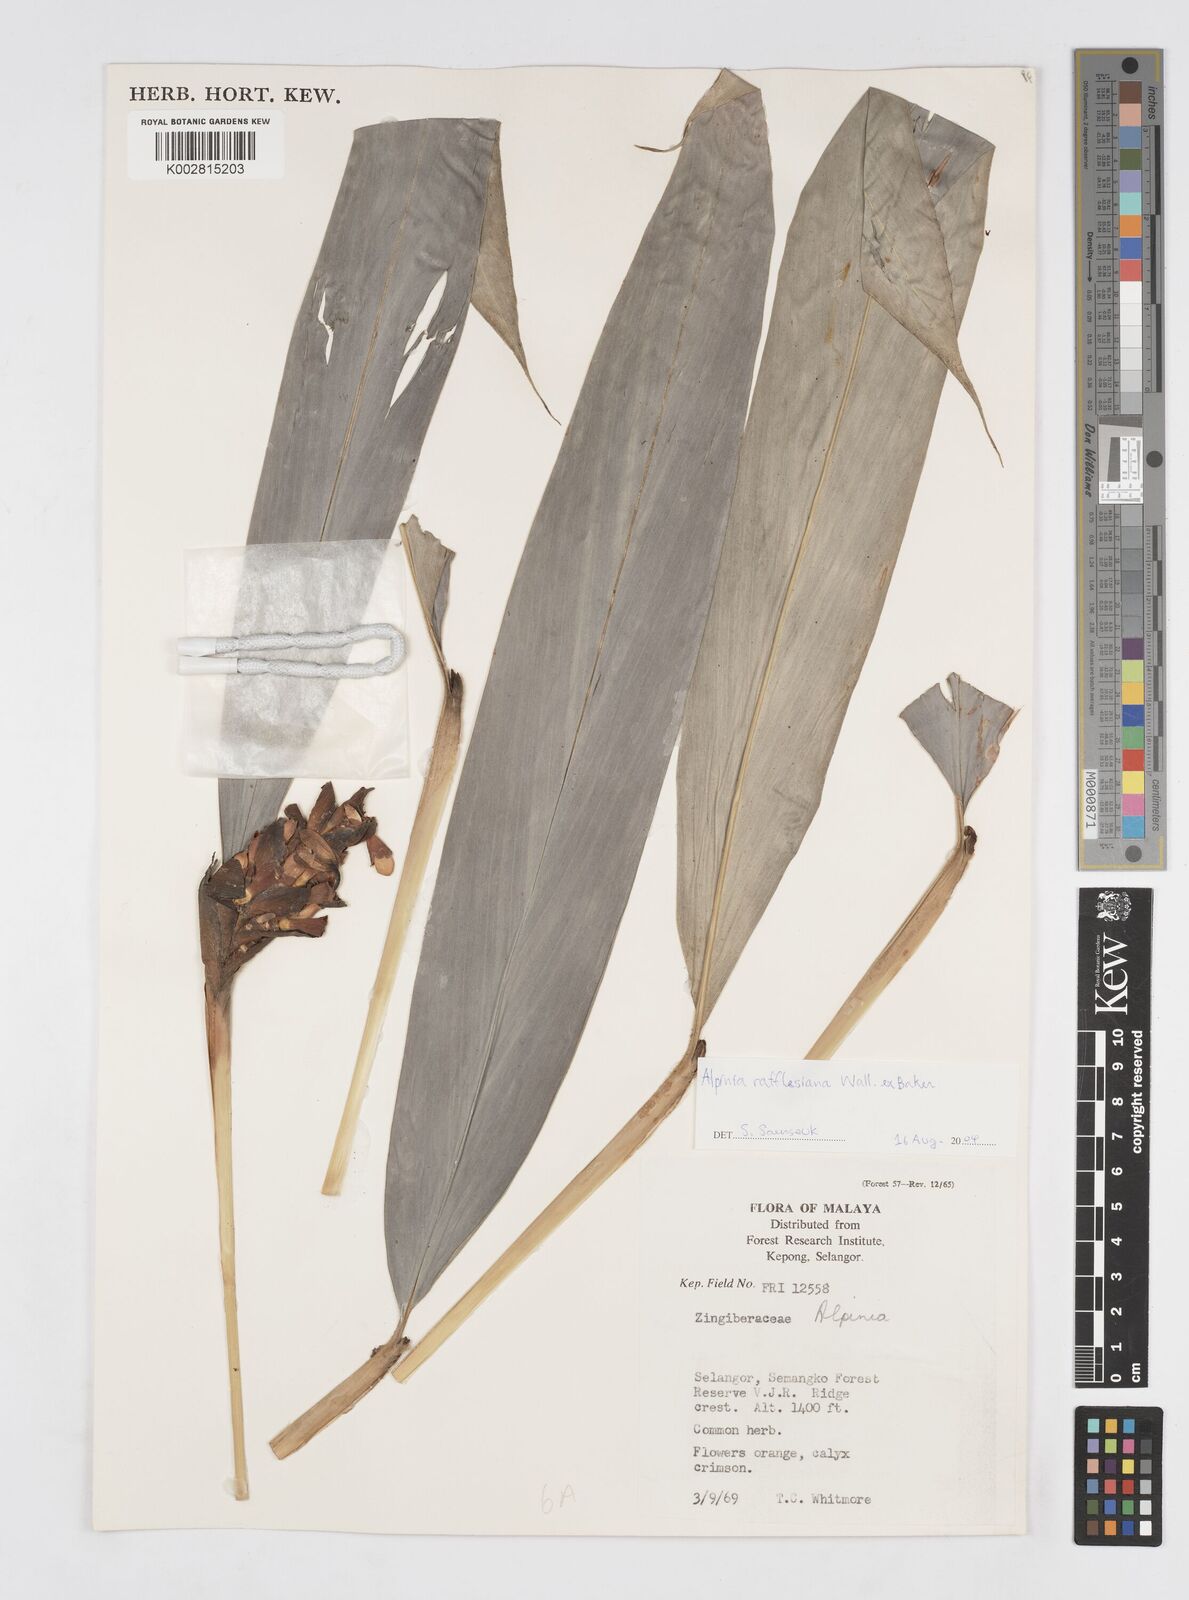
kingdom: Plantae
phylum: Tracheophyta
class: Liliopsida
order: Zingiberales
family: Zingiberaceae
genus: Alpinia
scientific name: Alpinia rafflesiana
